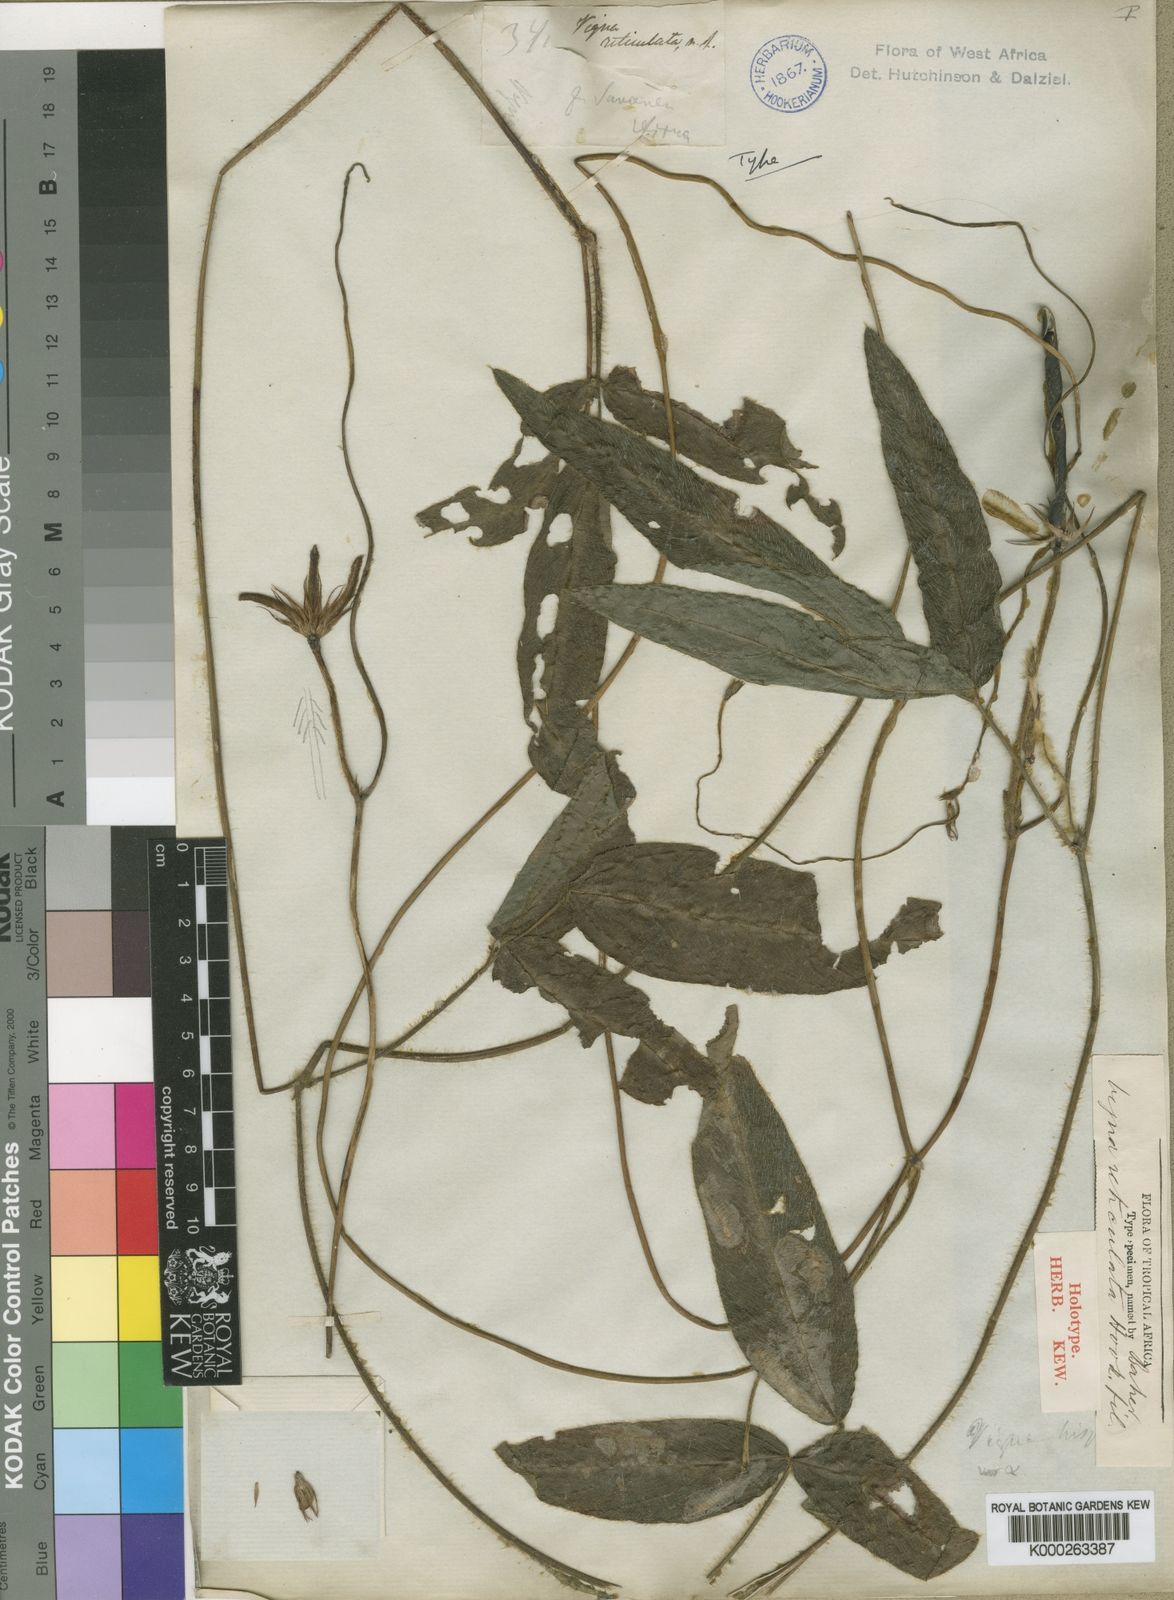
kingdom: Plantae
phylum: Tracheophyta
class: Magnoliopsida
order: Fabales
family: Fabaceae
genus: Vigna
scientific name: Vigna reticulata
